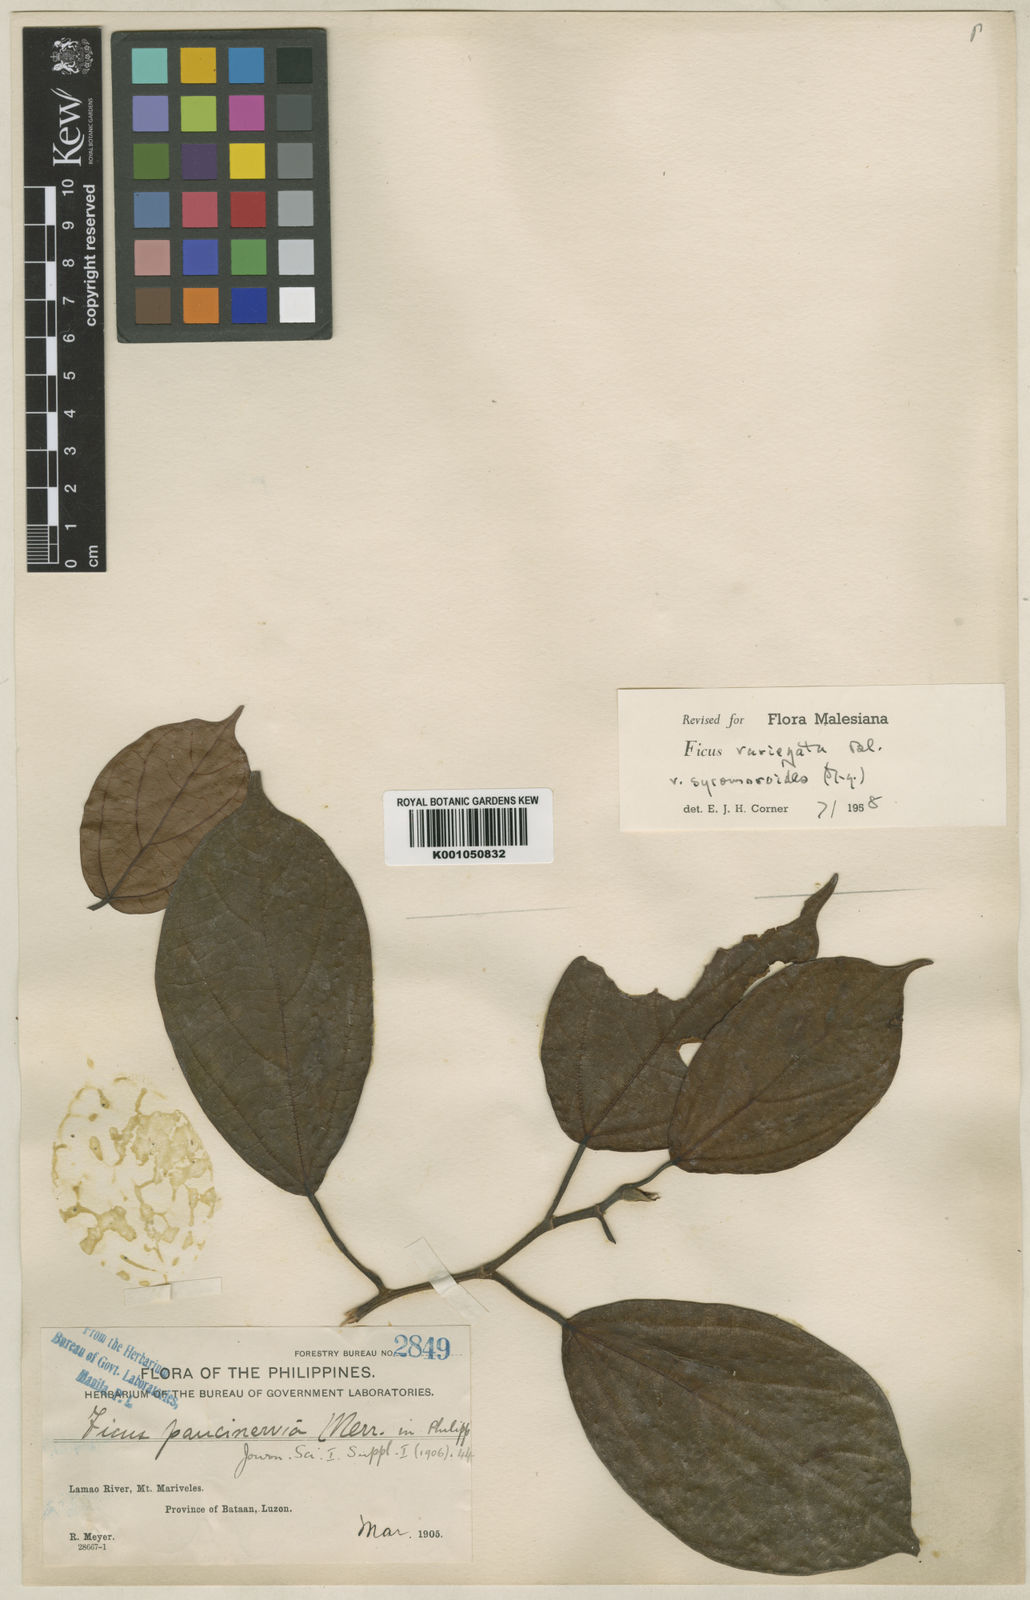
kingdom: Plantae
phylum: Tracheophyta
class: Magnoliopsida
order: Rosales
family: Moraceae
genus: Ficus
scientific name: Ficus variegata
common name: Variegated fig
